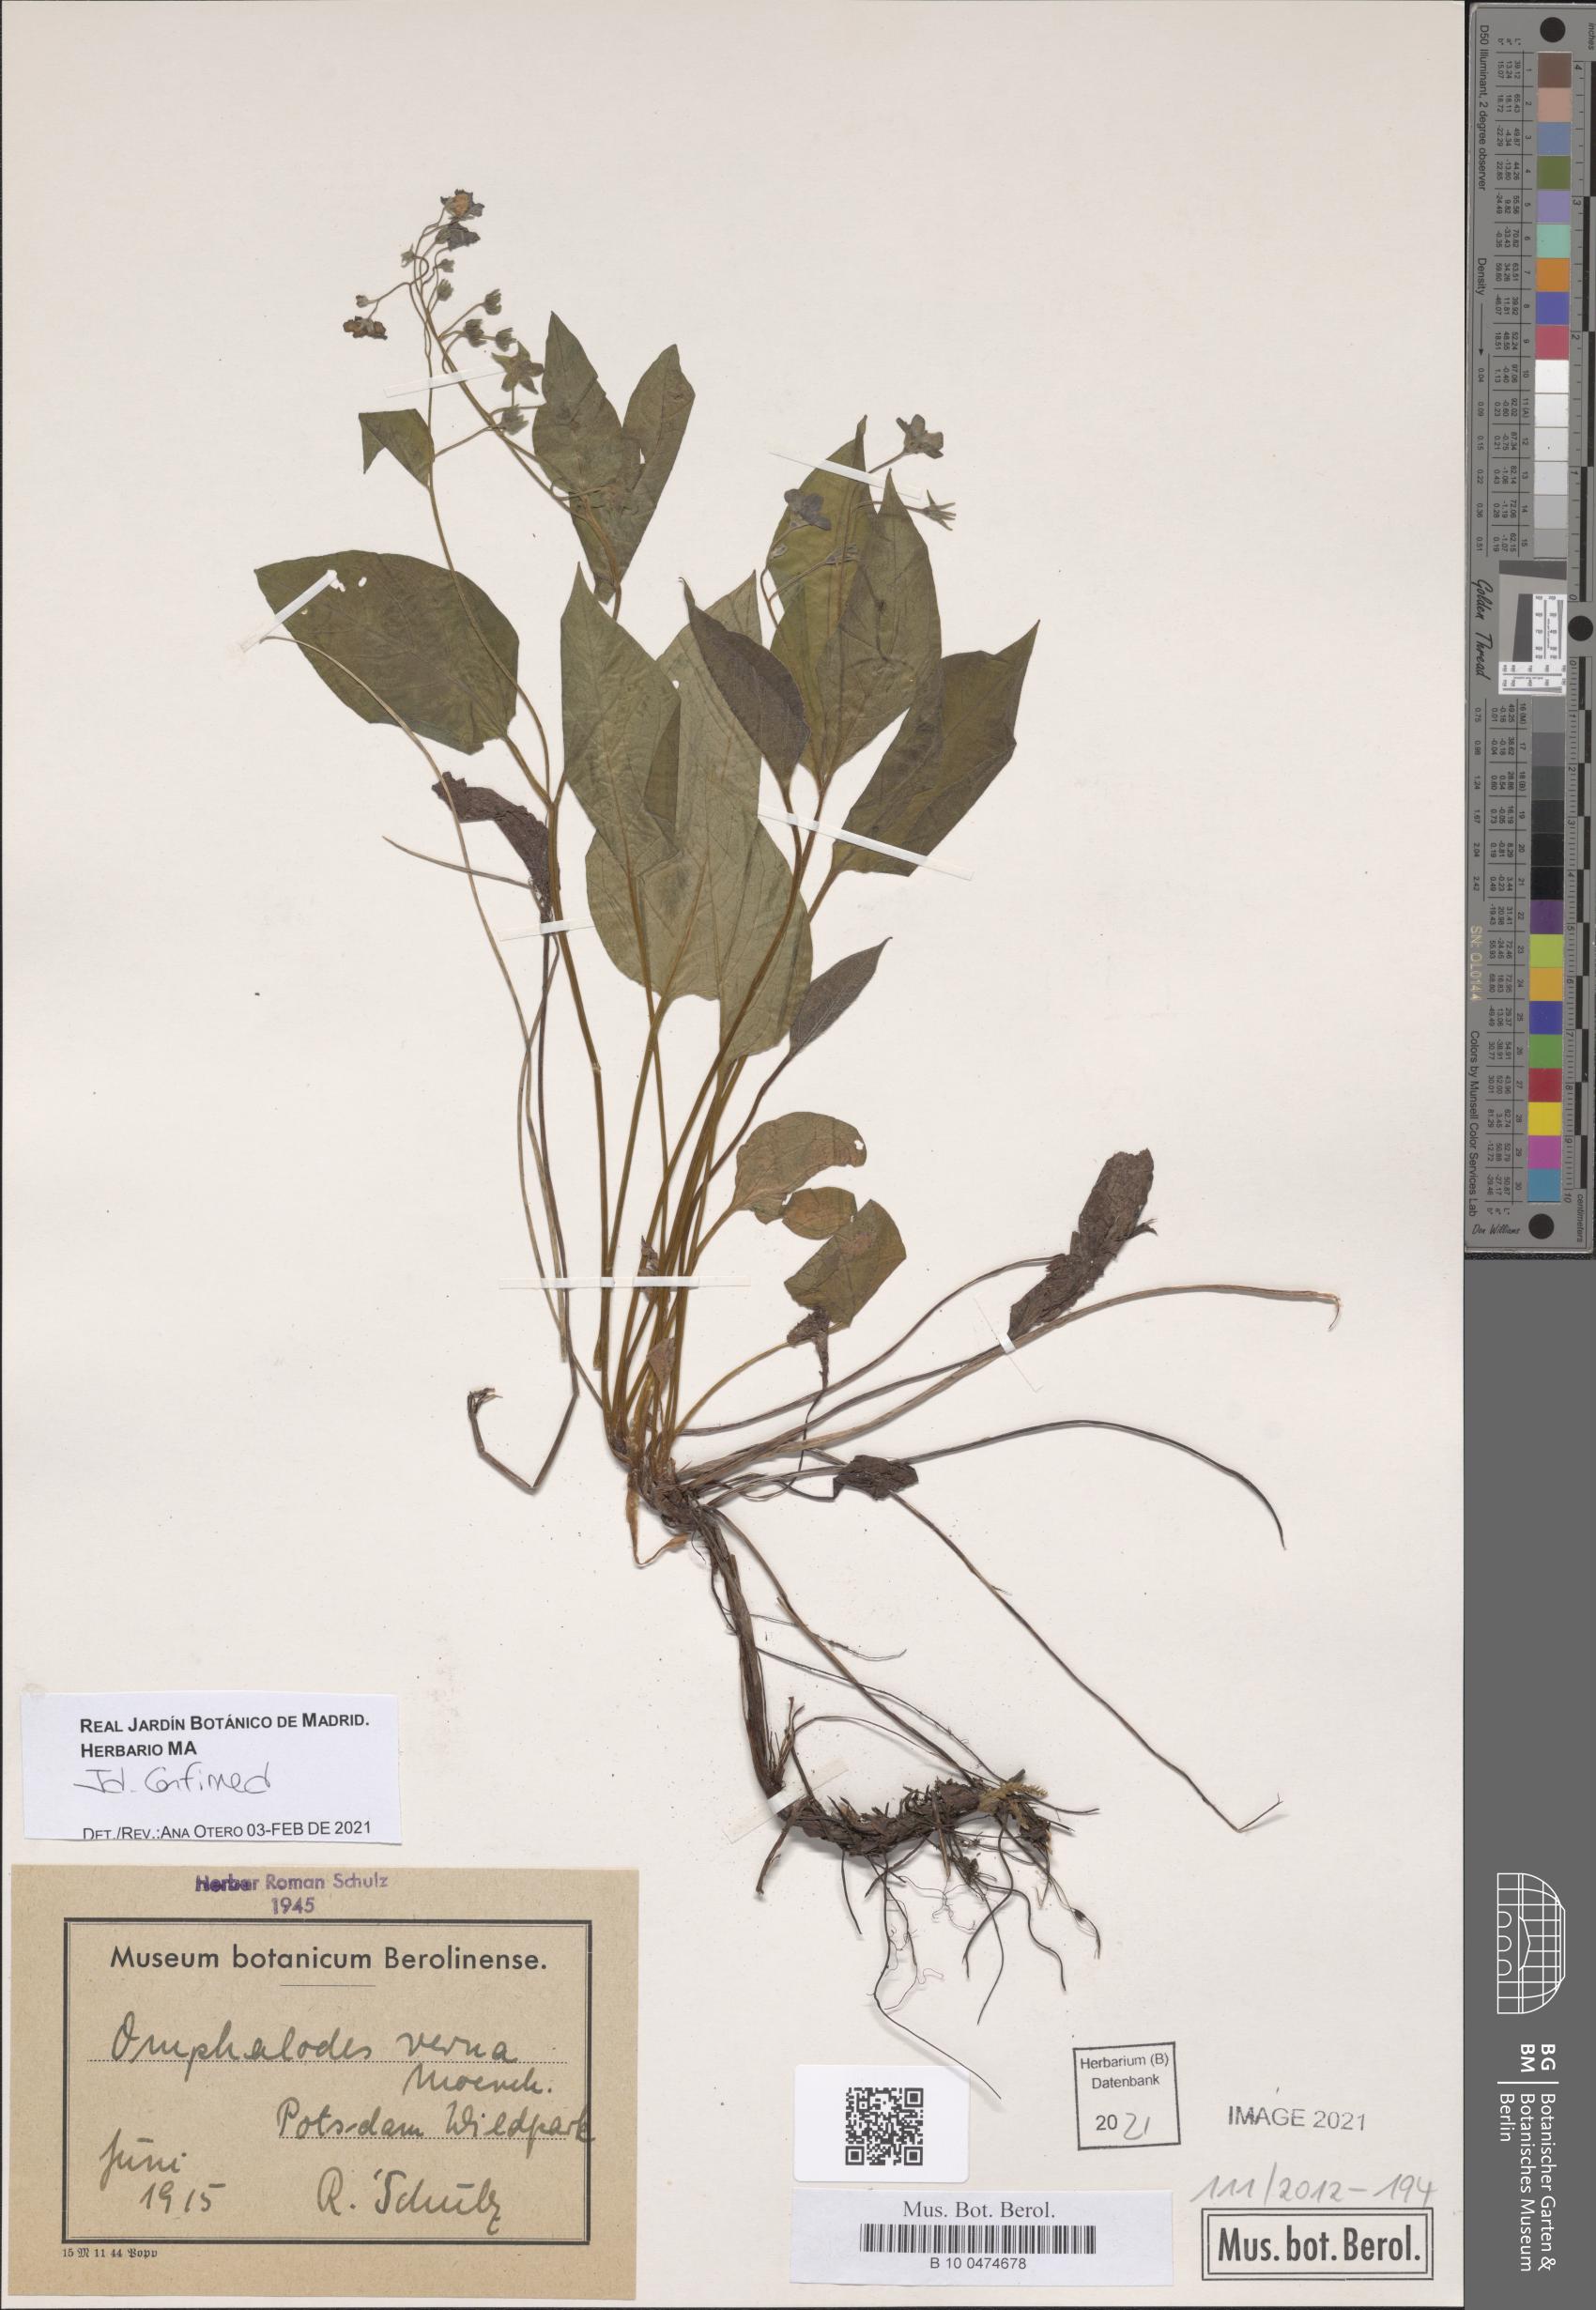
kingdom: Plantae
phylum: Tracheophyta
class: Magnoliopsida
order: Boraginales
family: Boraginaceae
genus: Omphalodes
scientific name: Omphalodes verna
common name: Blue-eyed-mary
